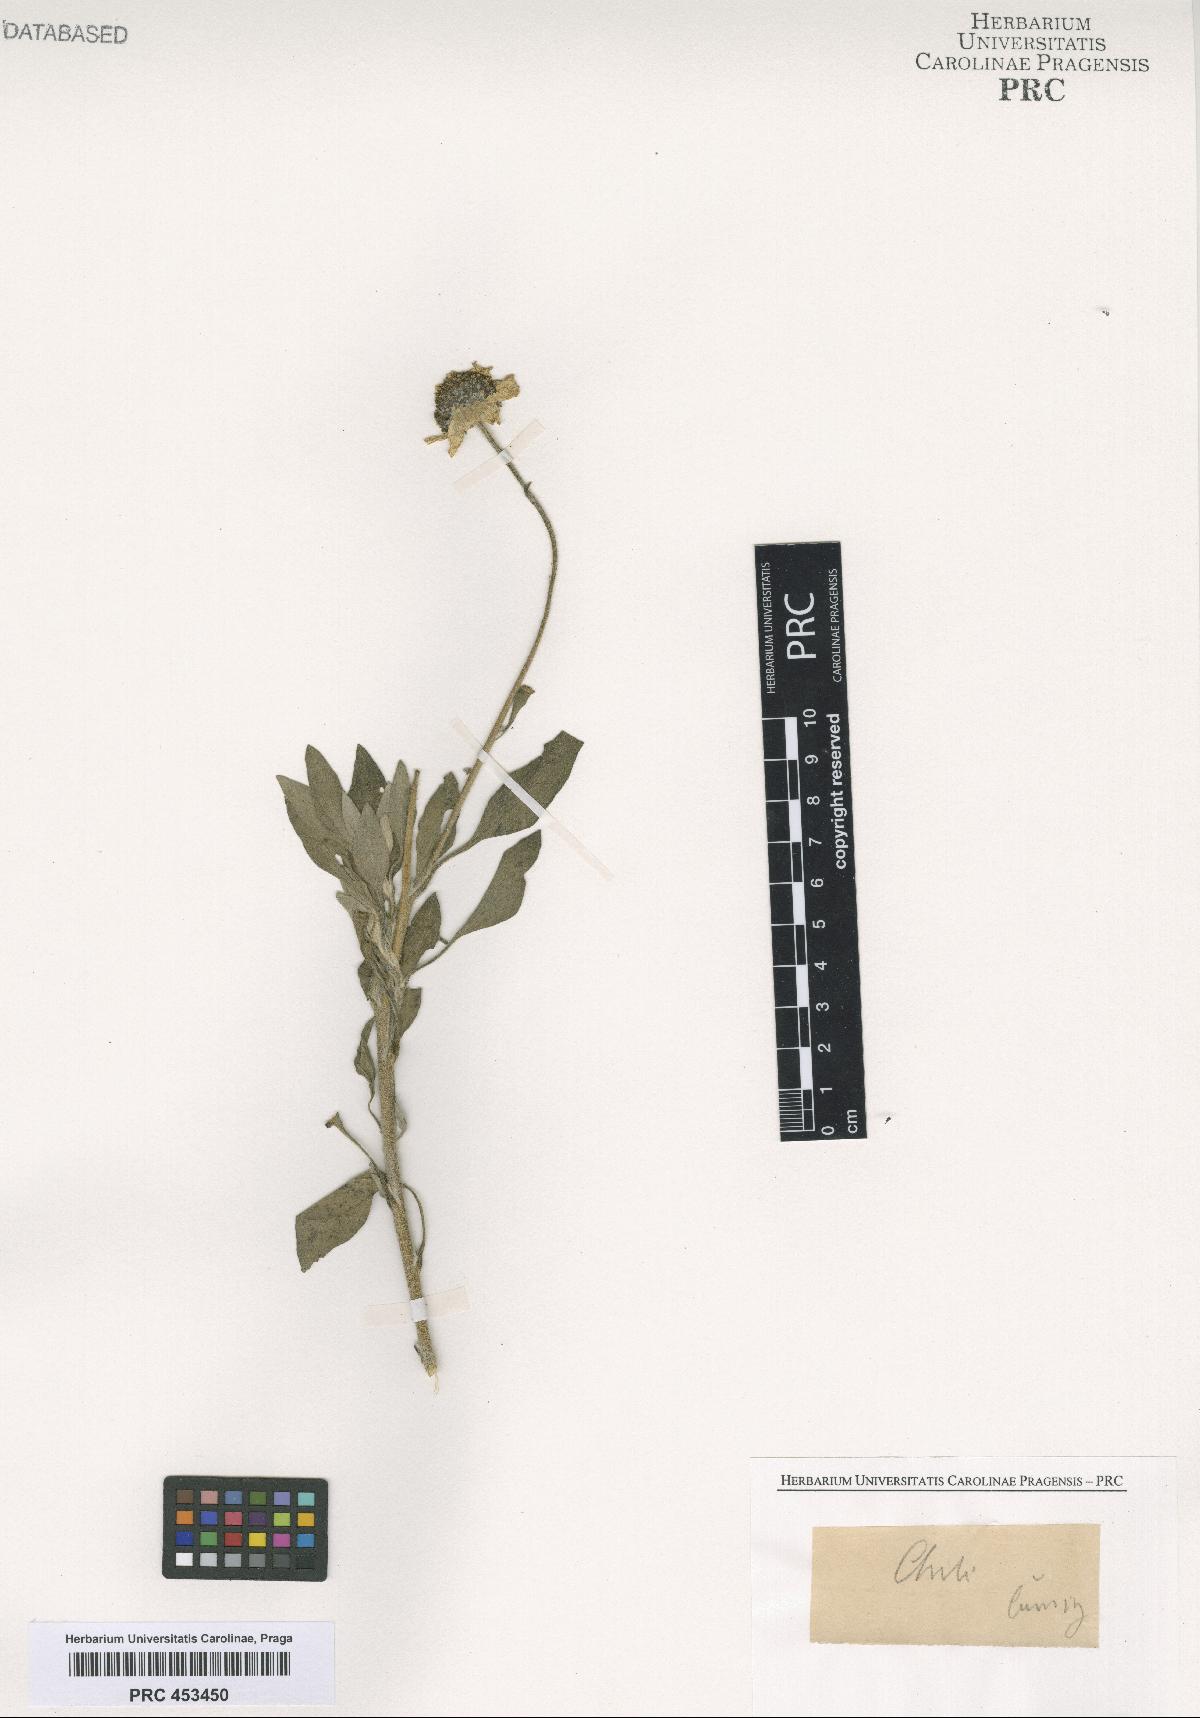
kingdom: Plantae
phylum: Tracheophyta
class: Magnoliopsida
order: Asterales
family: Asteraceae
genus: Encelia
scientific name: Encelia
